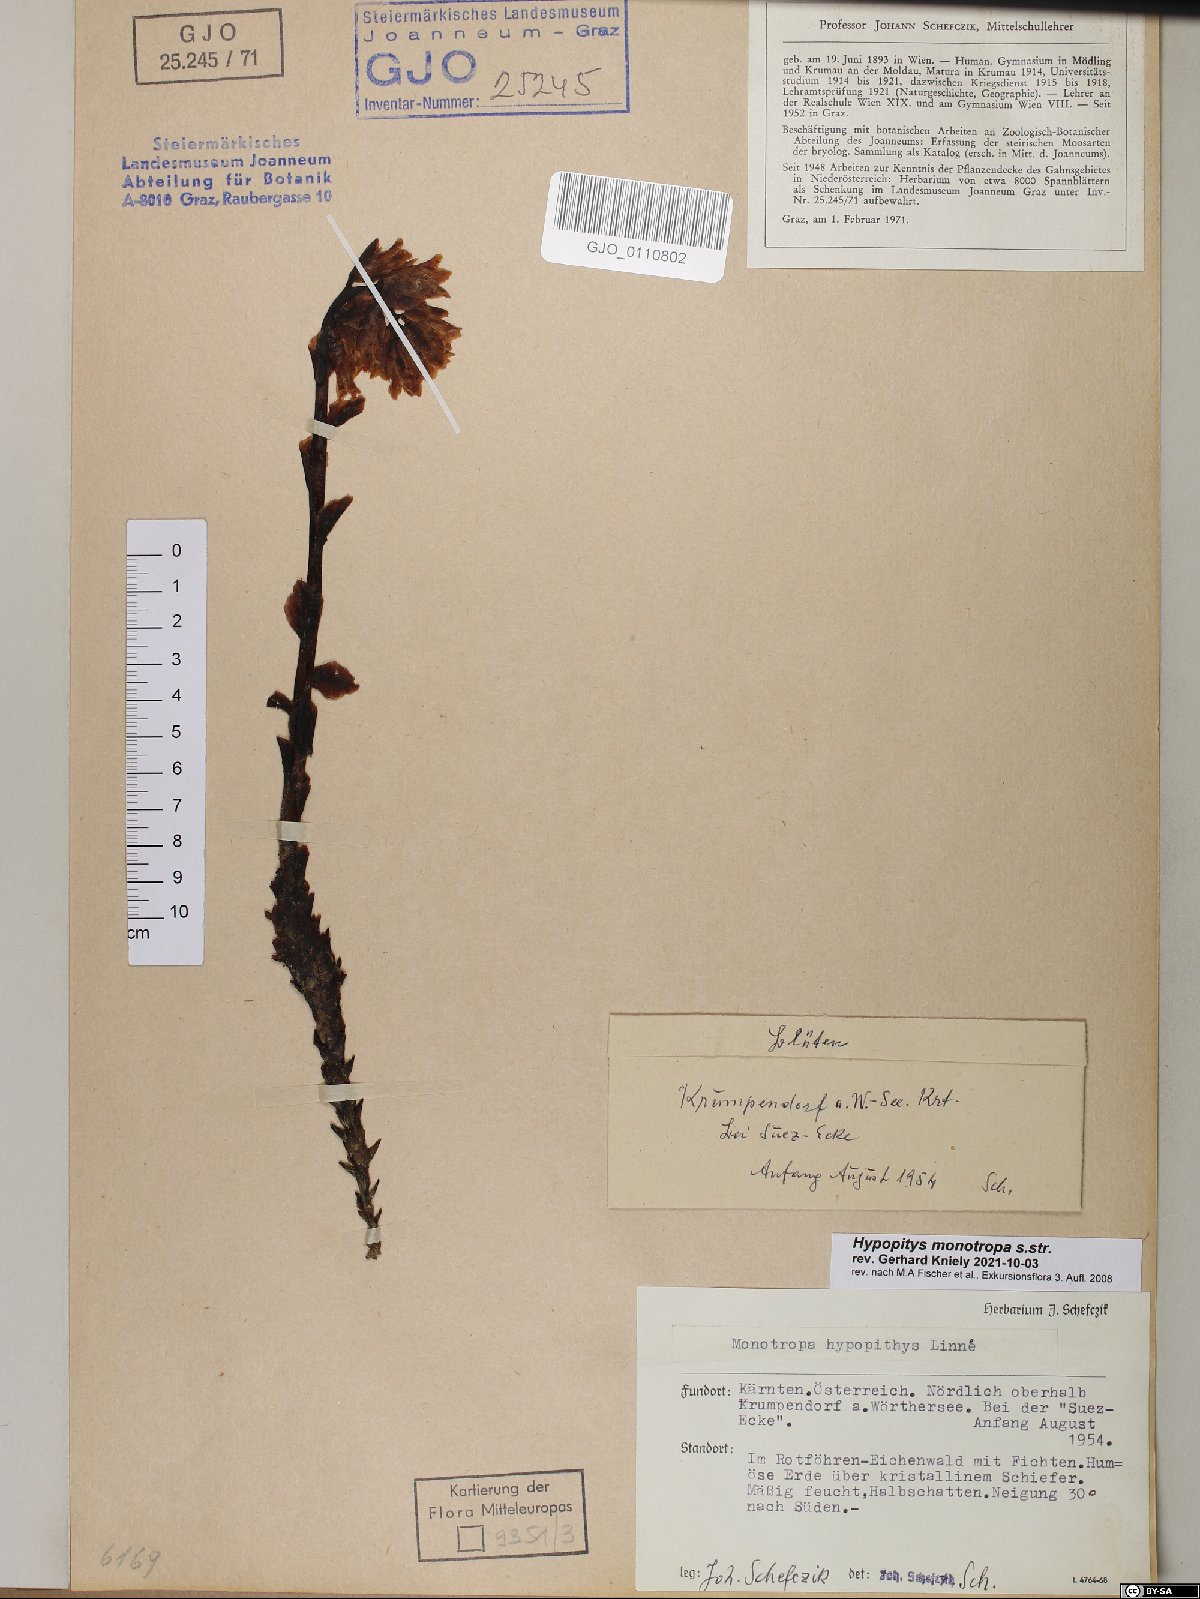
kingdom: Plantae
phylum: Tracheophyta
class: Magnoliopsida
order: Ericales
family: Ericaceae
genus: Hypopitys
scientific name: Hypopitys monotropa
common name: Yellow bird's-nest
